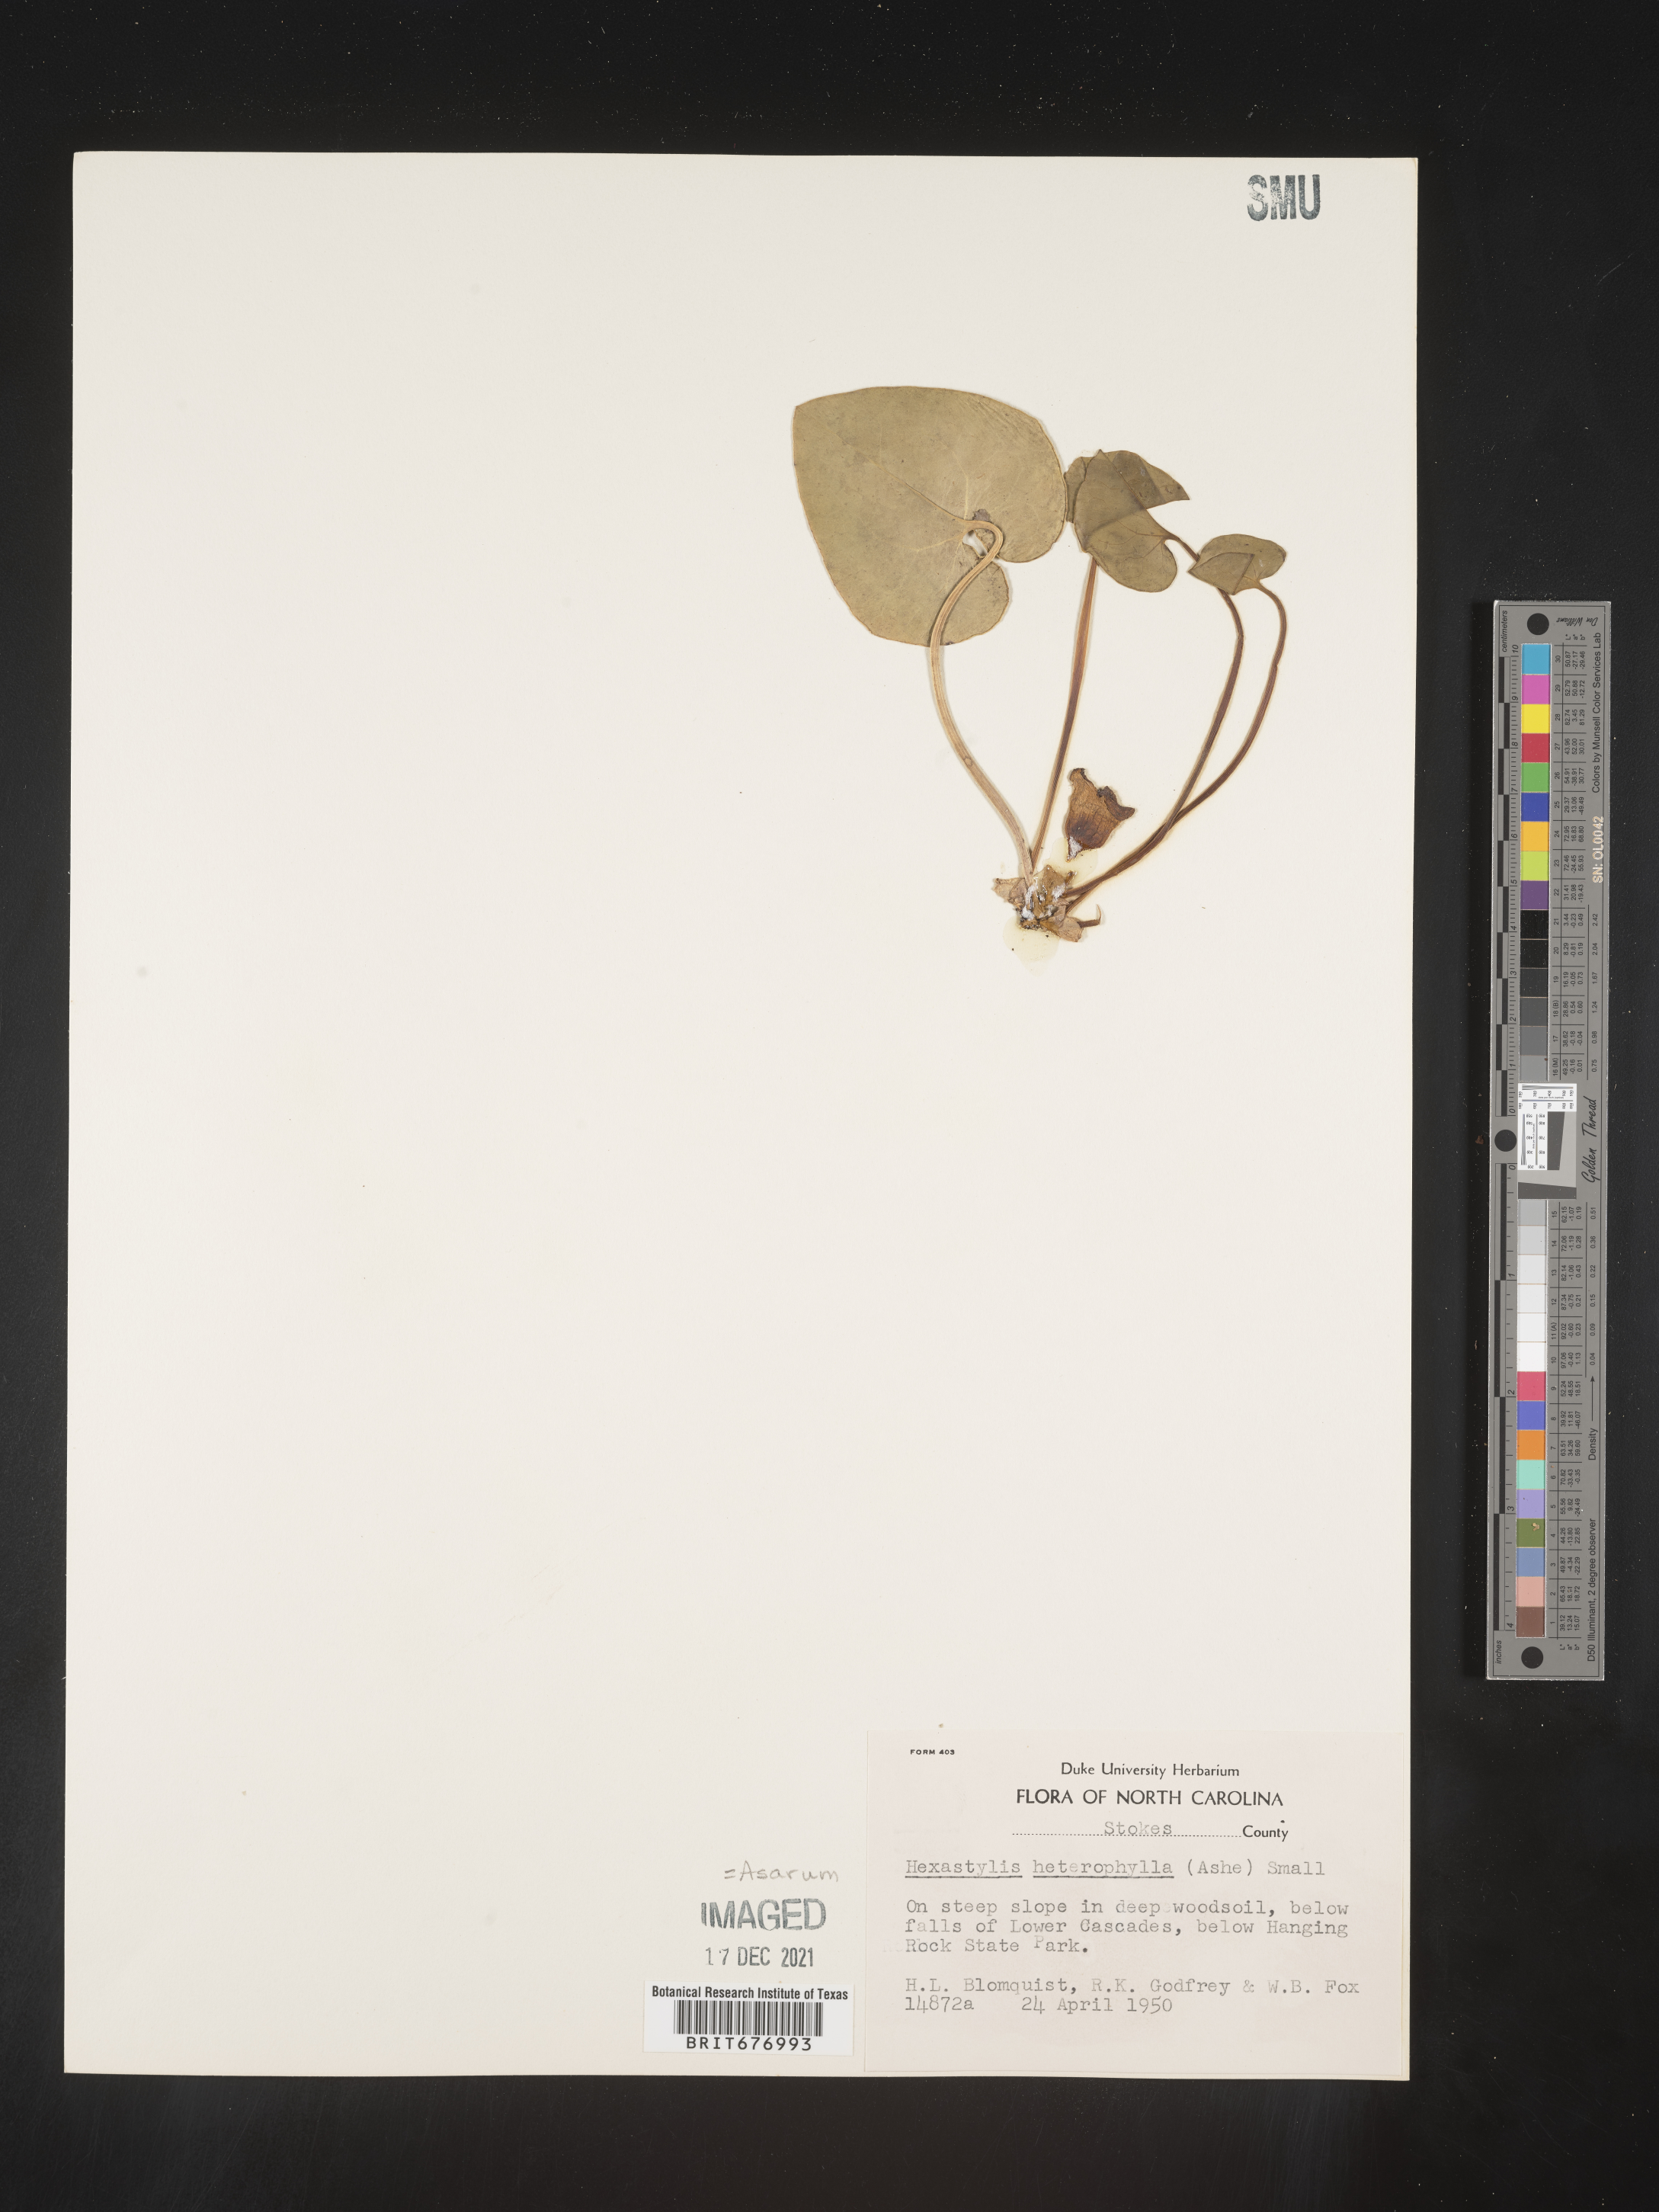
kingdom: Plantae
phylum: Tracheophyta
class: Magnoliopsida
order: Piperales
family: Aristolochiaceae
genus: Asarum
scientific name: Asarum
